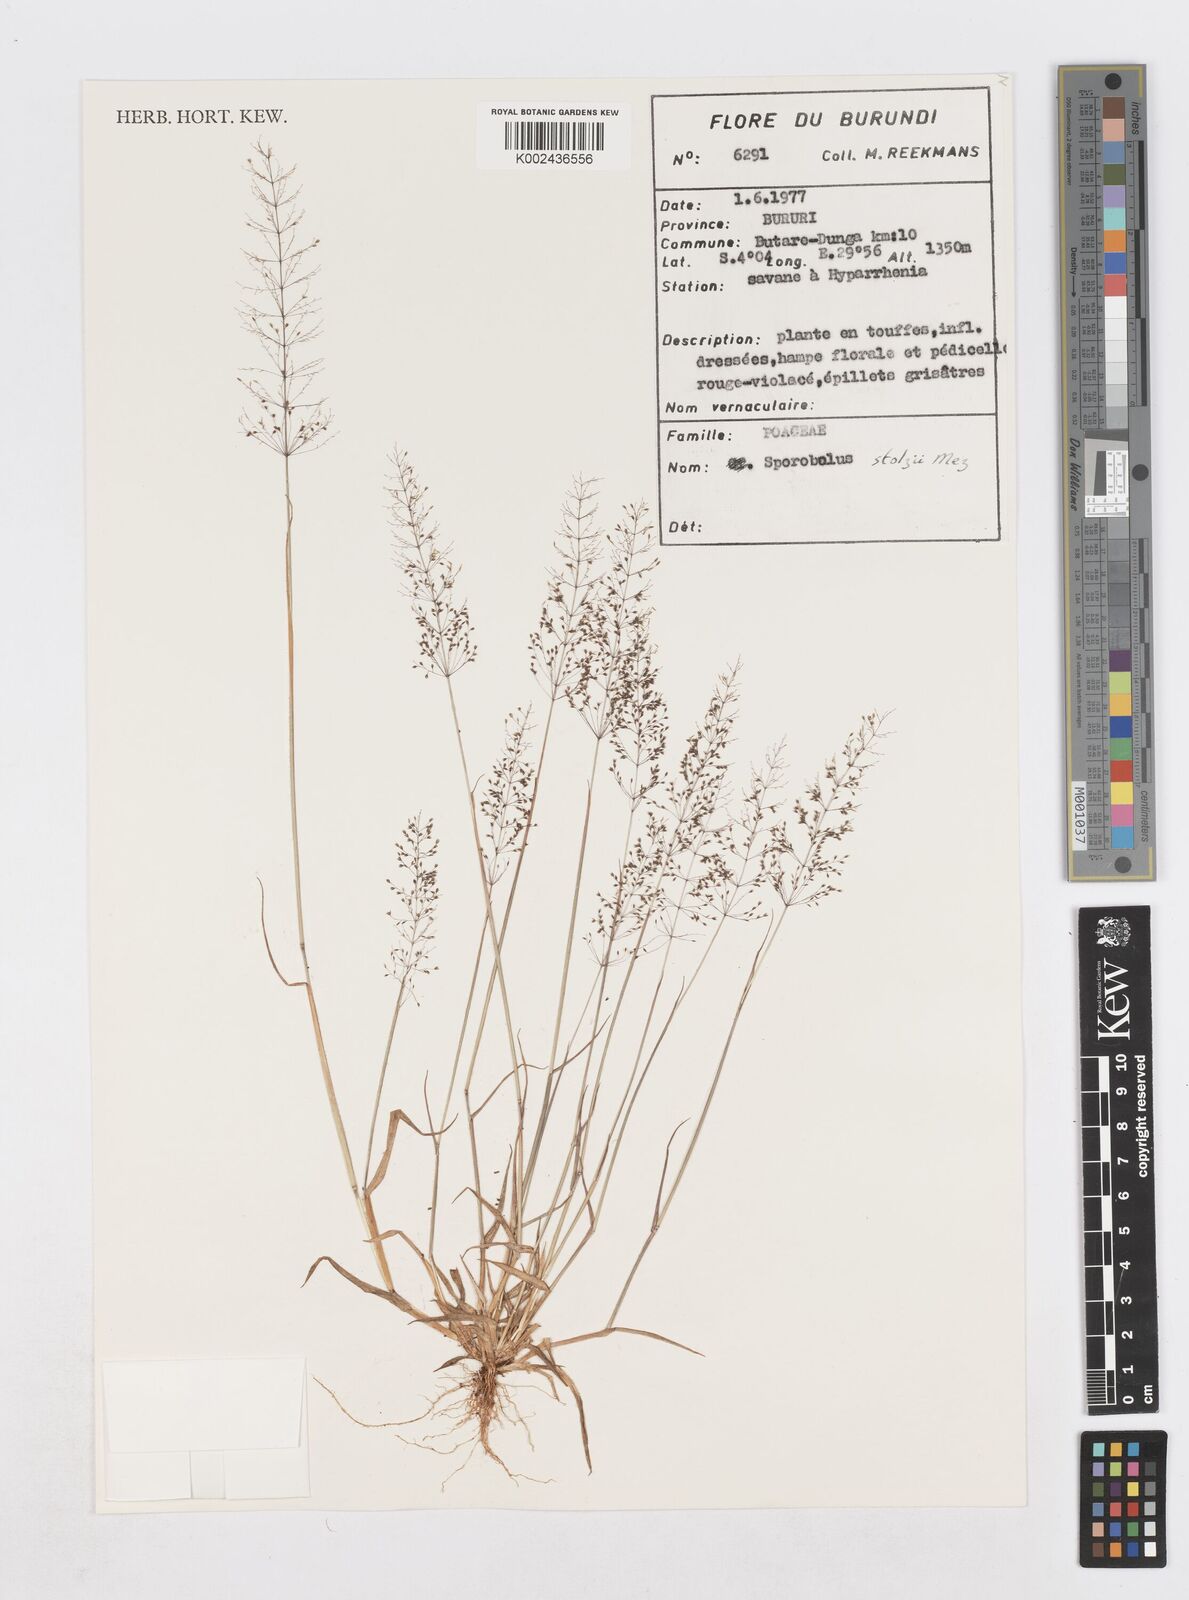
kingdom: Plantae
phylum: Tracheophyta
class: Liliopsida
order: Poales
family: Poaceae
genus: Sporobolus
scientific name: Sporobolus stolzii
